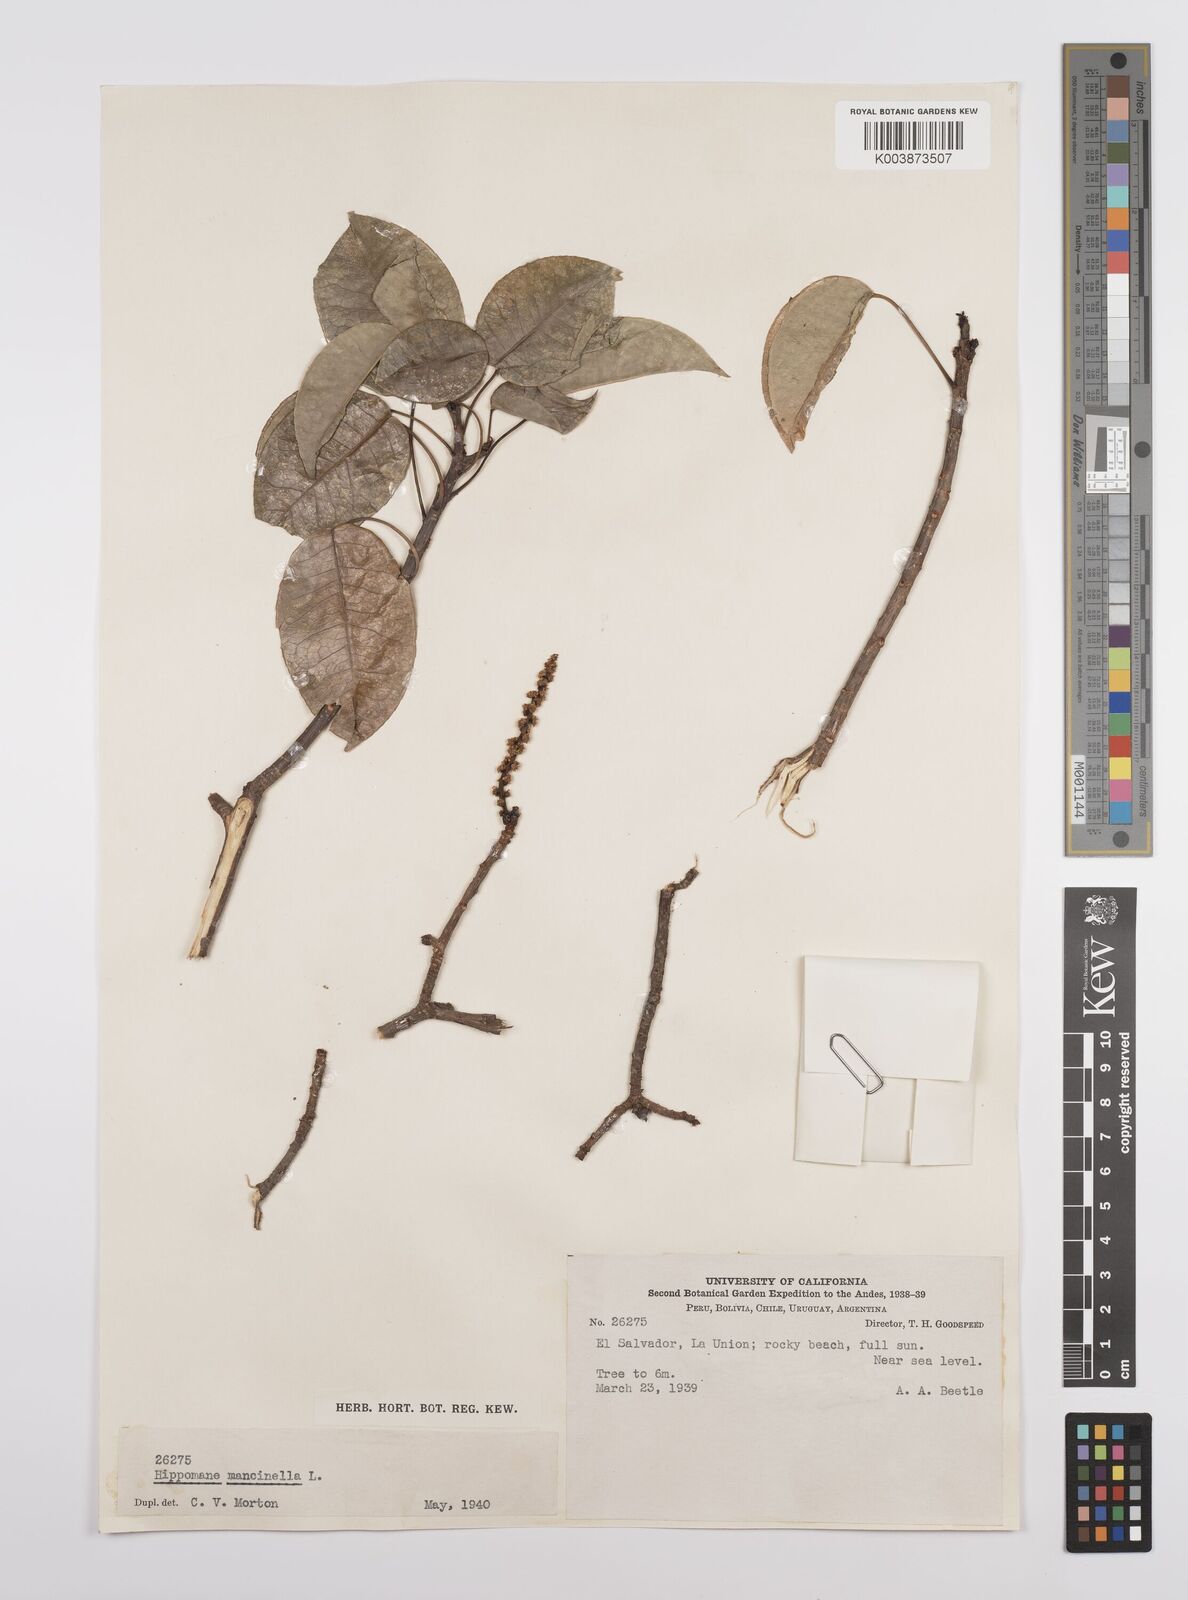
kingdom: Plantae
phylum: Tracheophyta
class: Magnoliopsida
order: Malpighiales
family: Euphorbiaceae
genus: Hippomane
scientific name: Hippomane mancinella
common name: Manchineel
